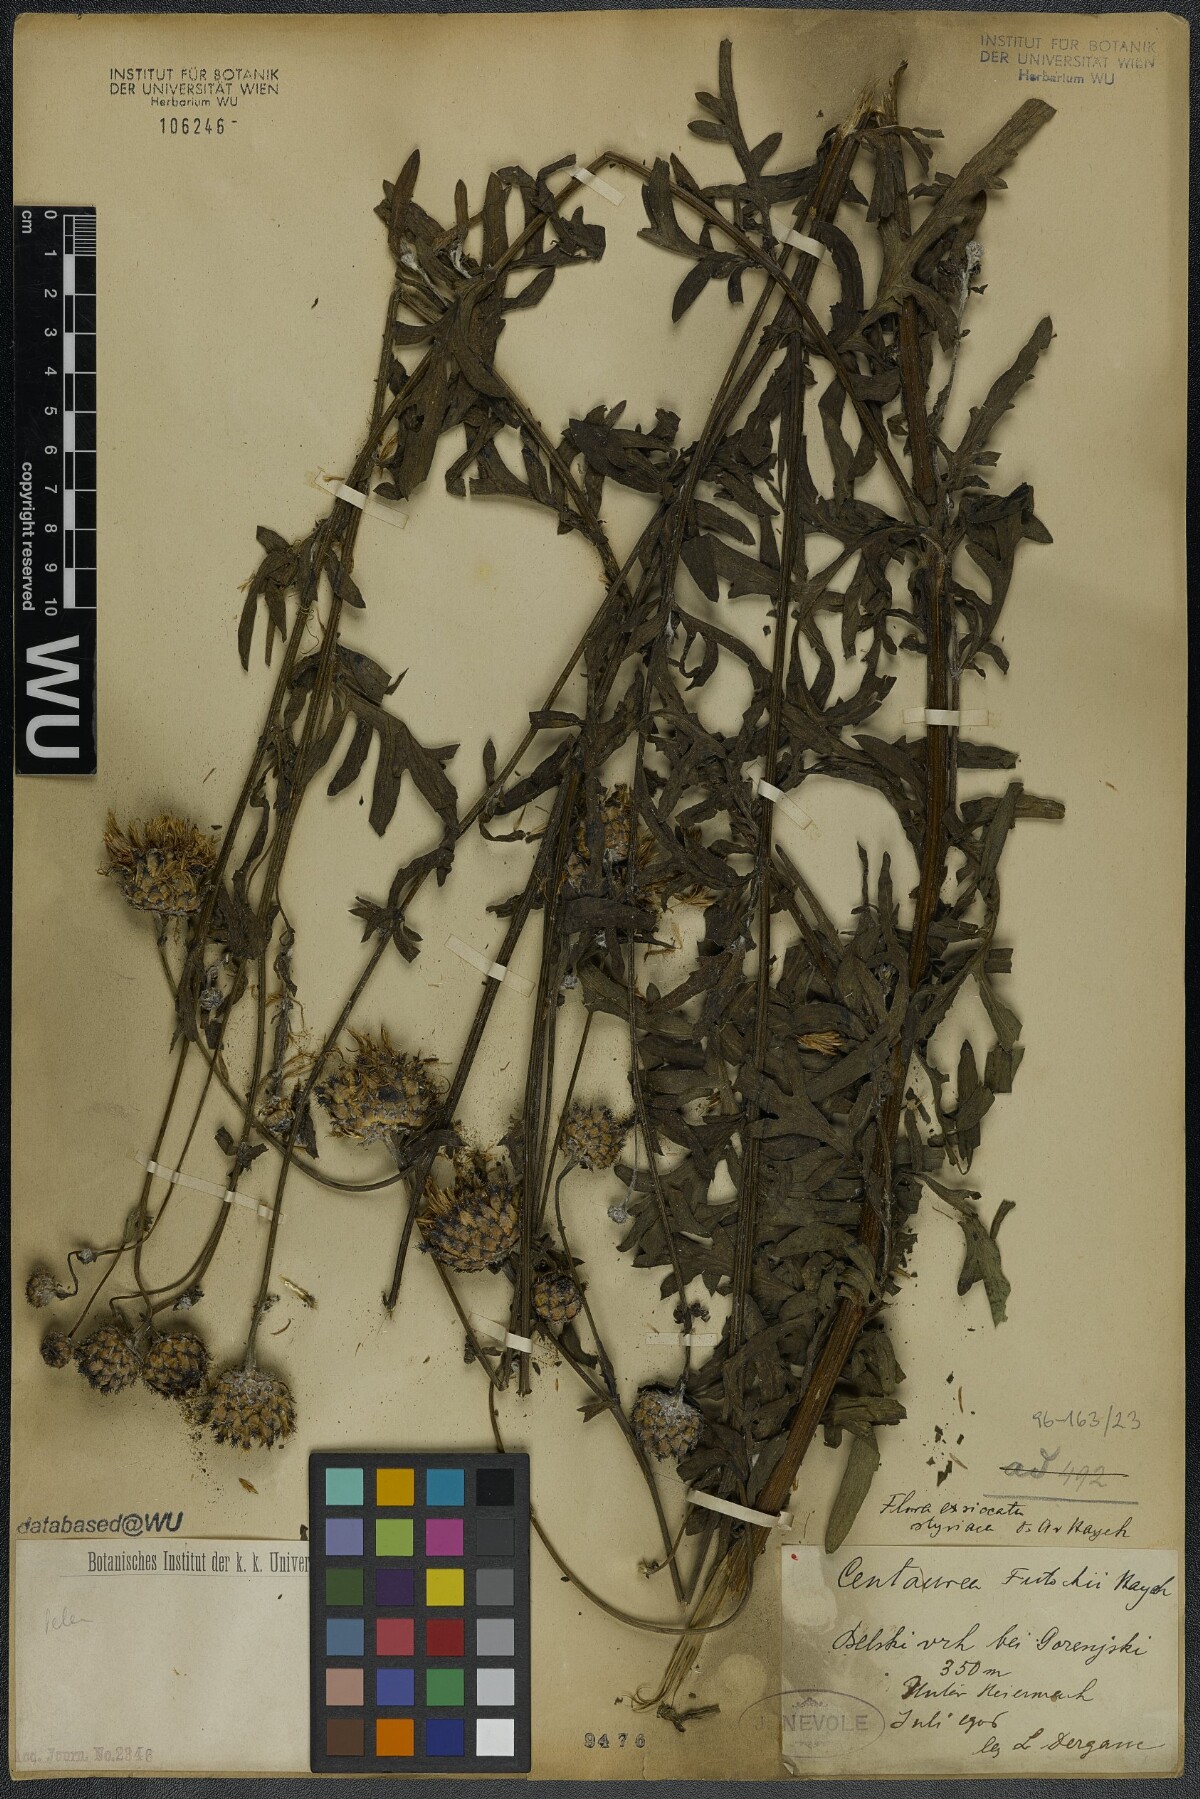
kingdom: Plantae
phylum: Tracheophyta
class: Magnoliopsida
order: Asterales
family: Asteraceae
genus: Centaurea
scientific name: Centaurea scabiosa
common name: Greater knapweed
